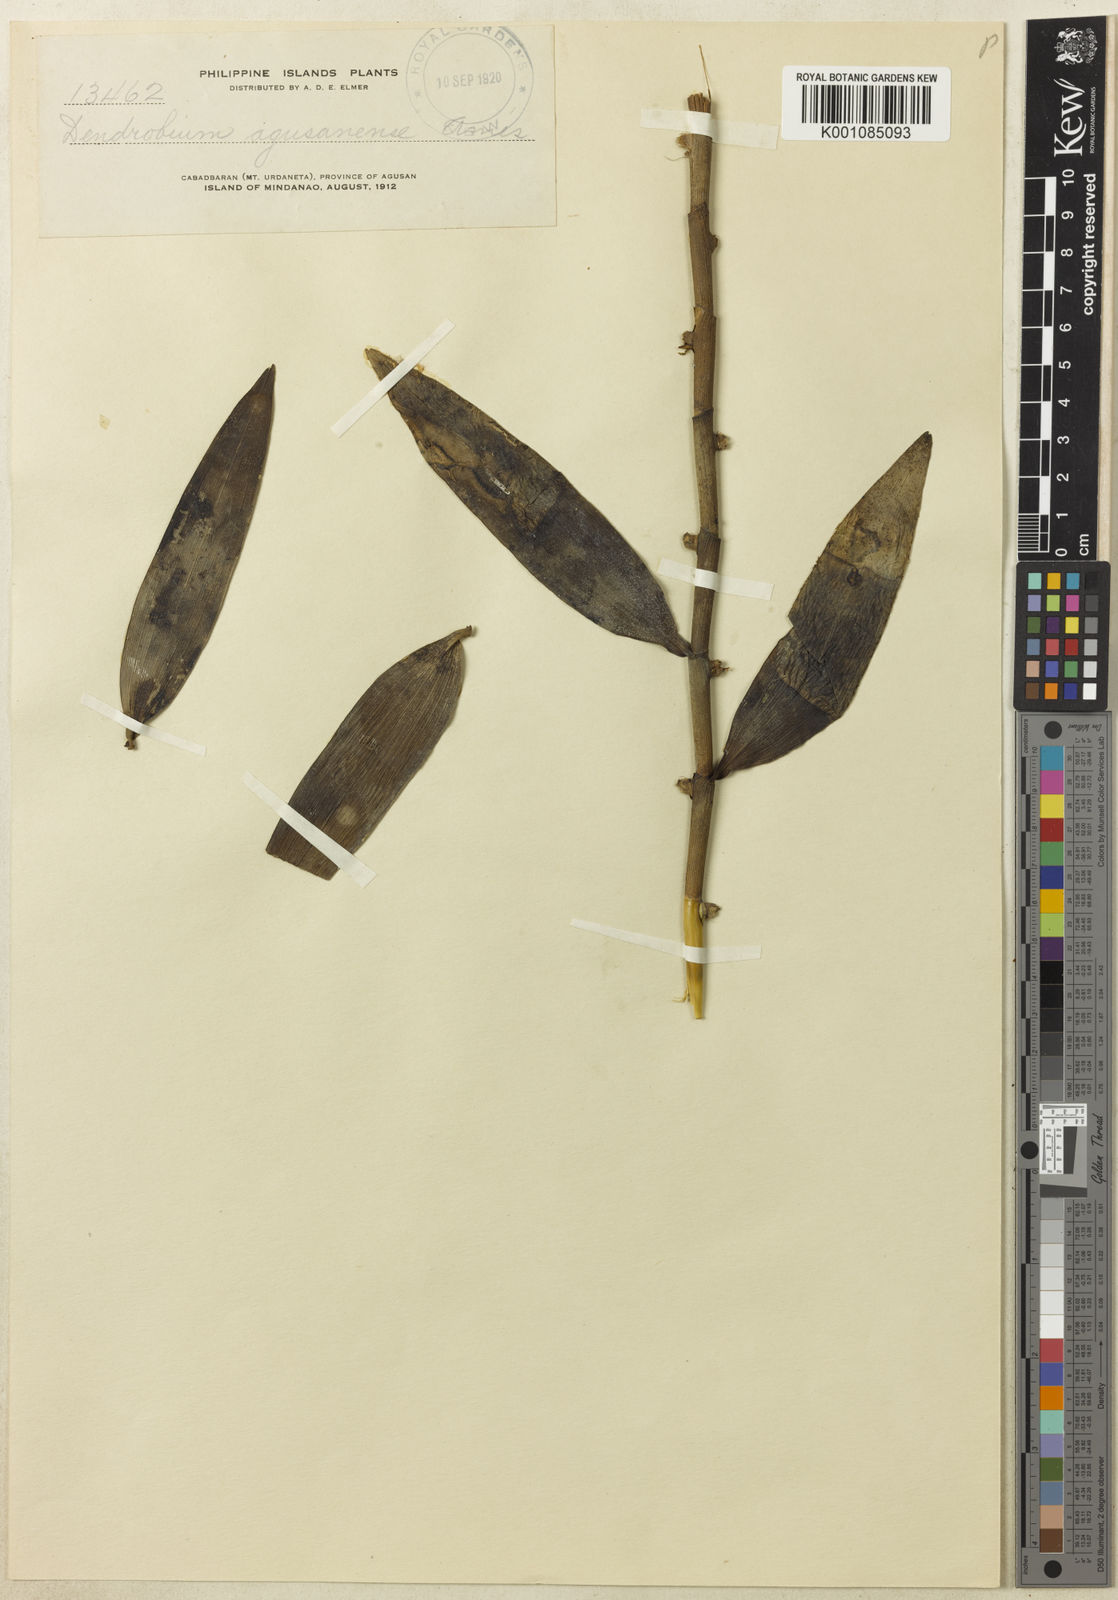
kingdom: Plantae
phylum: Tracheophyta
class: Liliopsida
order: Asparagales
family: Orchidaceae
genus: Dendrobium
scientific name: Dendrobium agusanense
